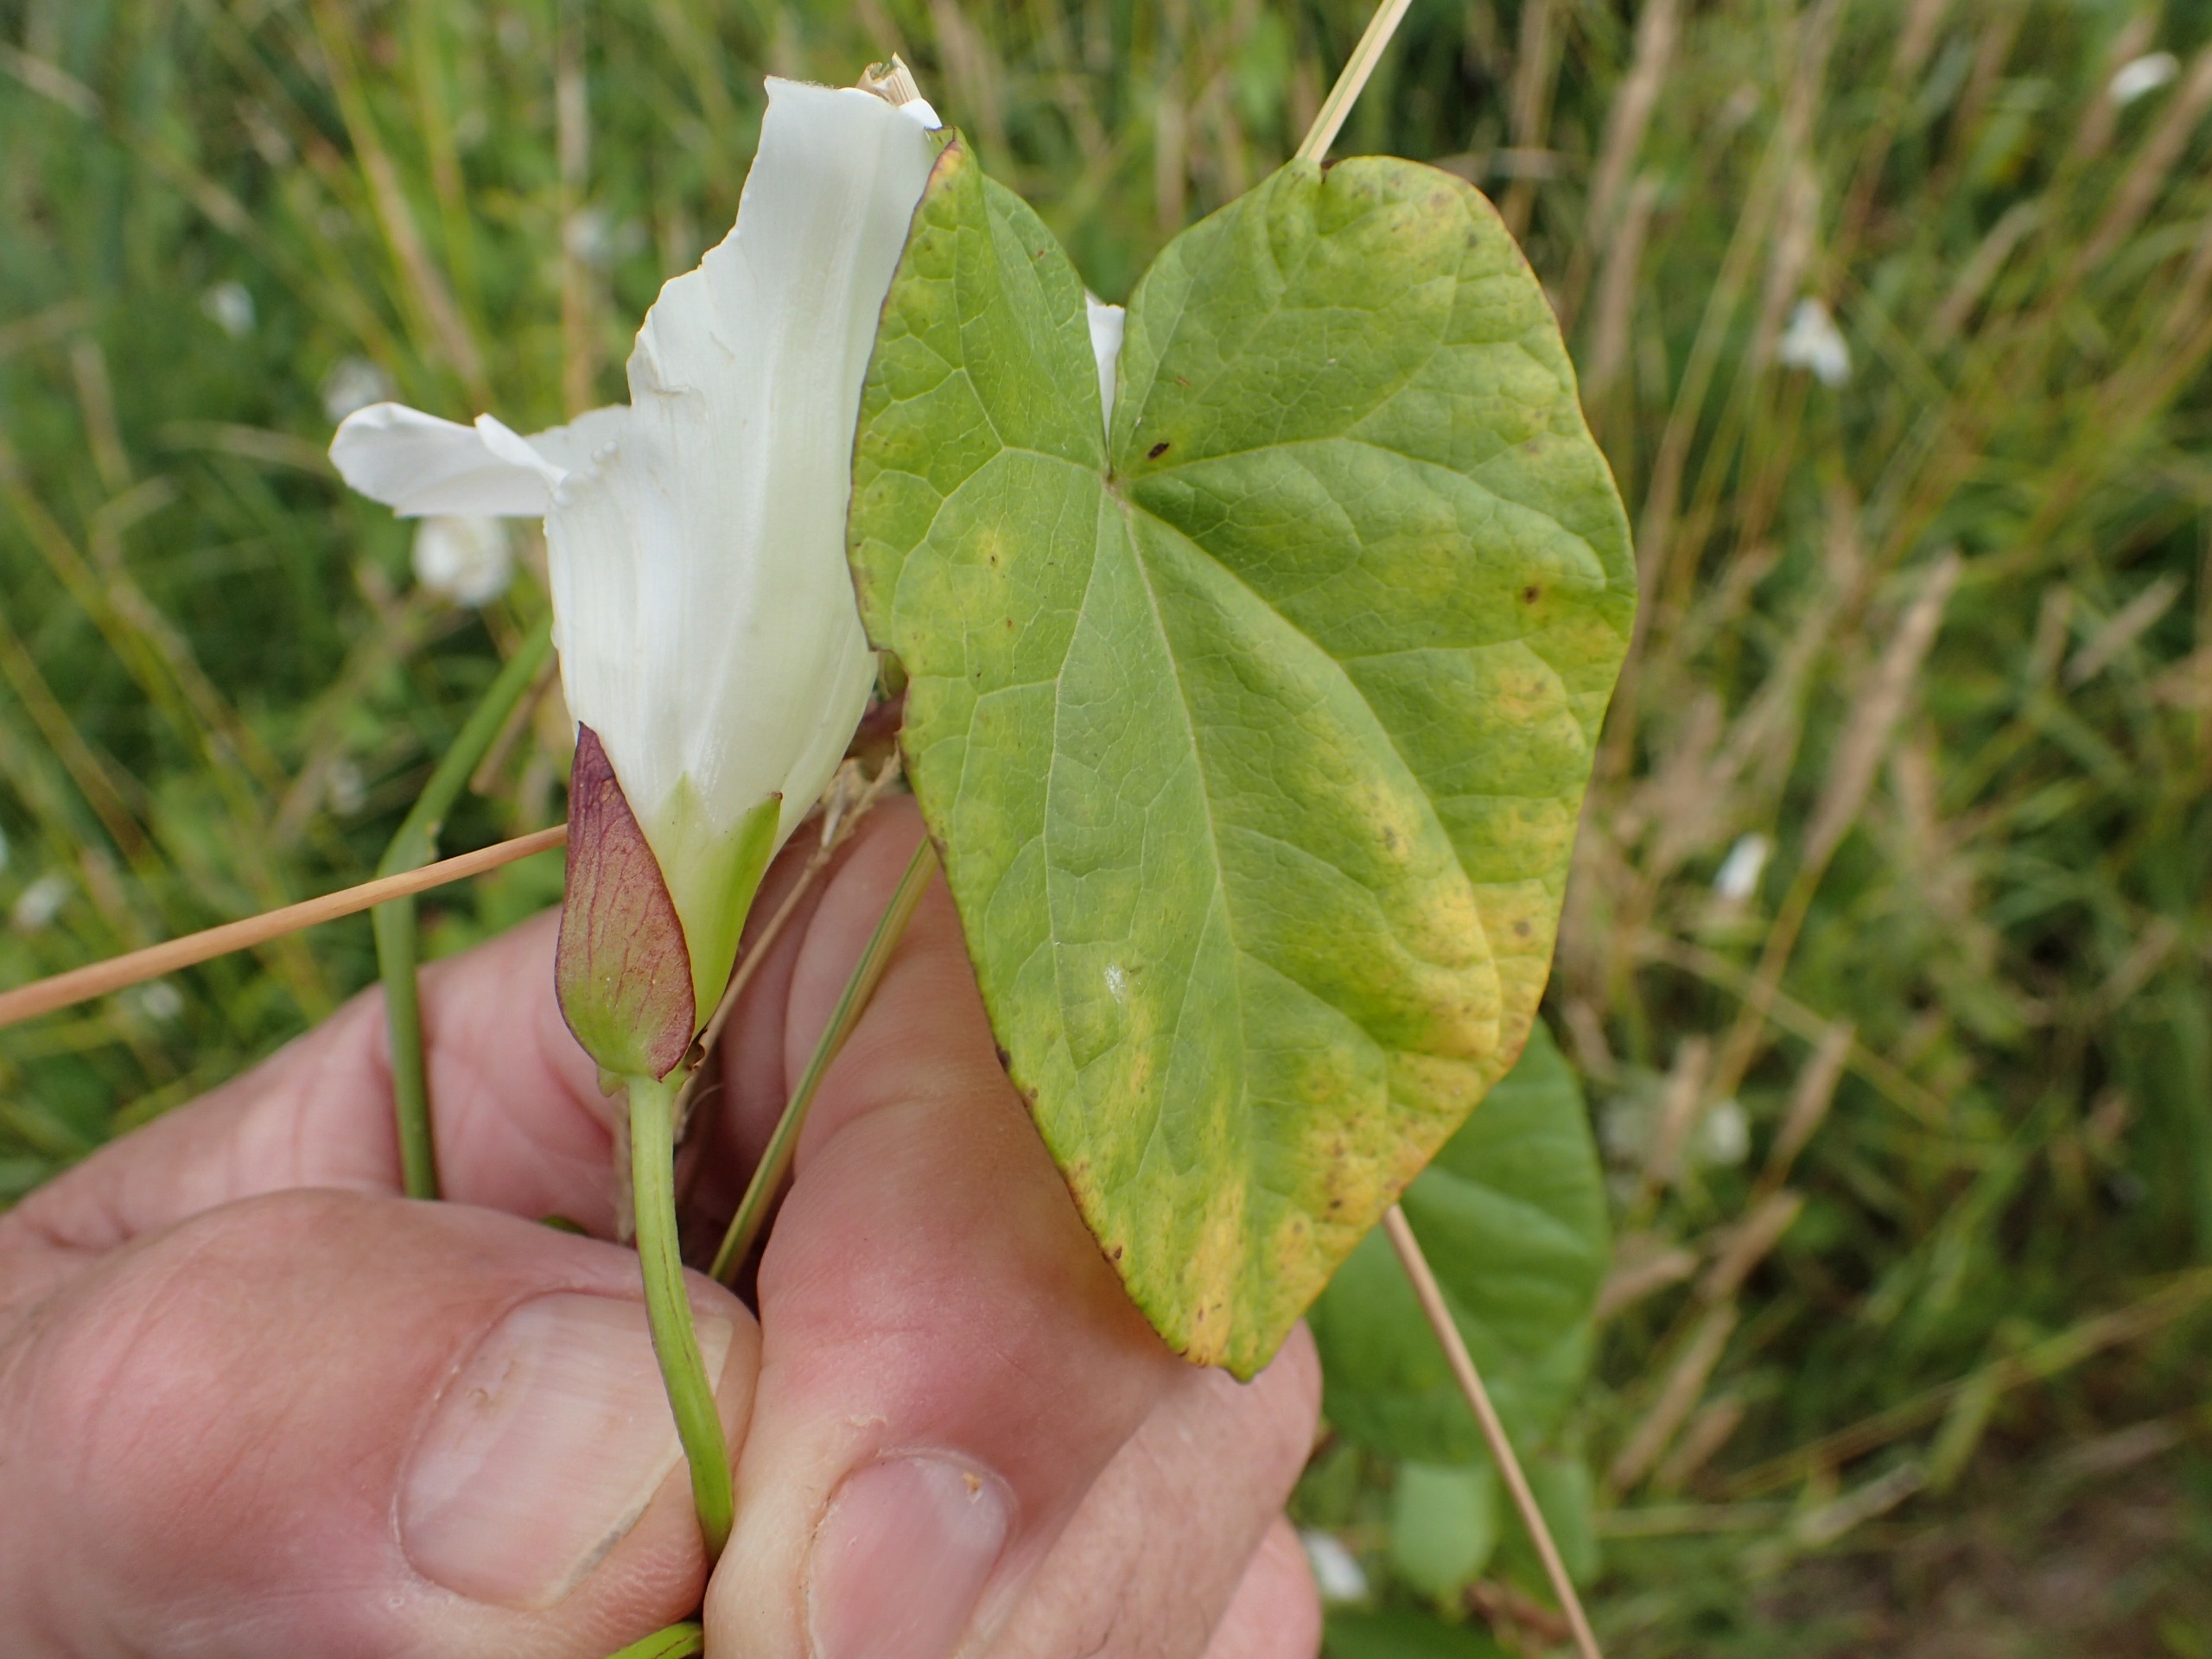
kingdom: Plantae
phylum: Tracheophyta
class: Magnoliopsida
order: Solanales
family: Convolvulaceae
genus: Calystegia
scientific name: Calystegia sepium
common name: Gærde-snerle
